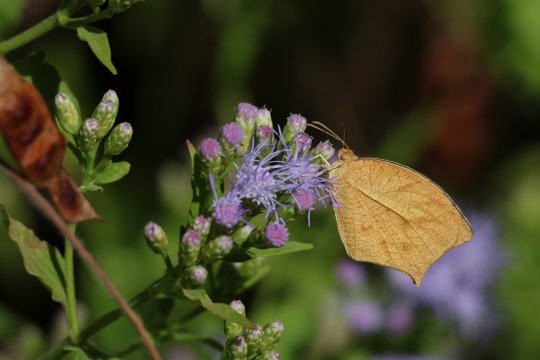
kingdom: Animalia
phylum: Arthropoda
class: Insecta
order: Lepidoptera
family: Pieridae
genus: Pyrisitia
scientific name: Pyrisitia proterpia
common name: Tailed Orange
